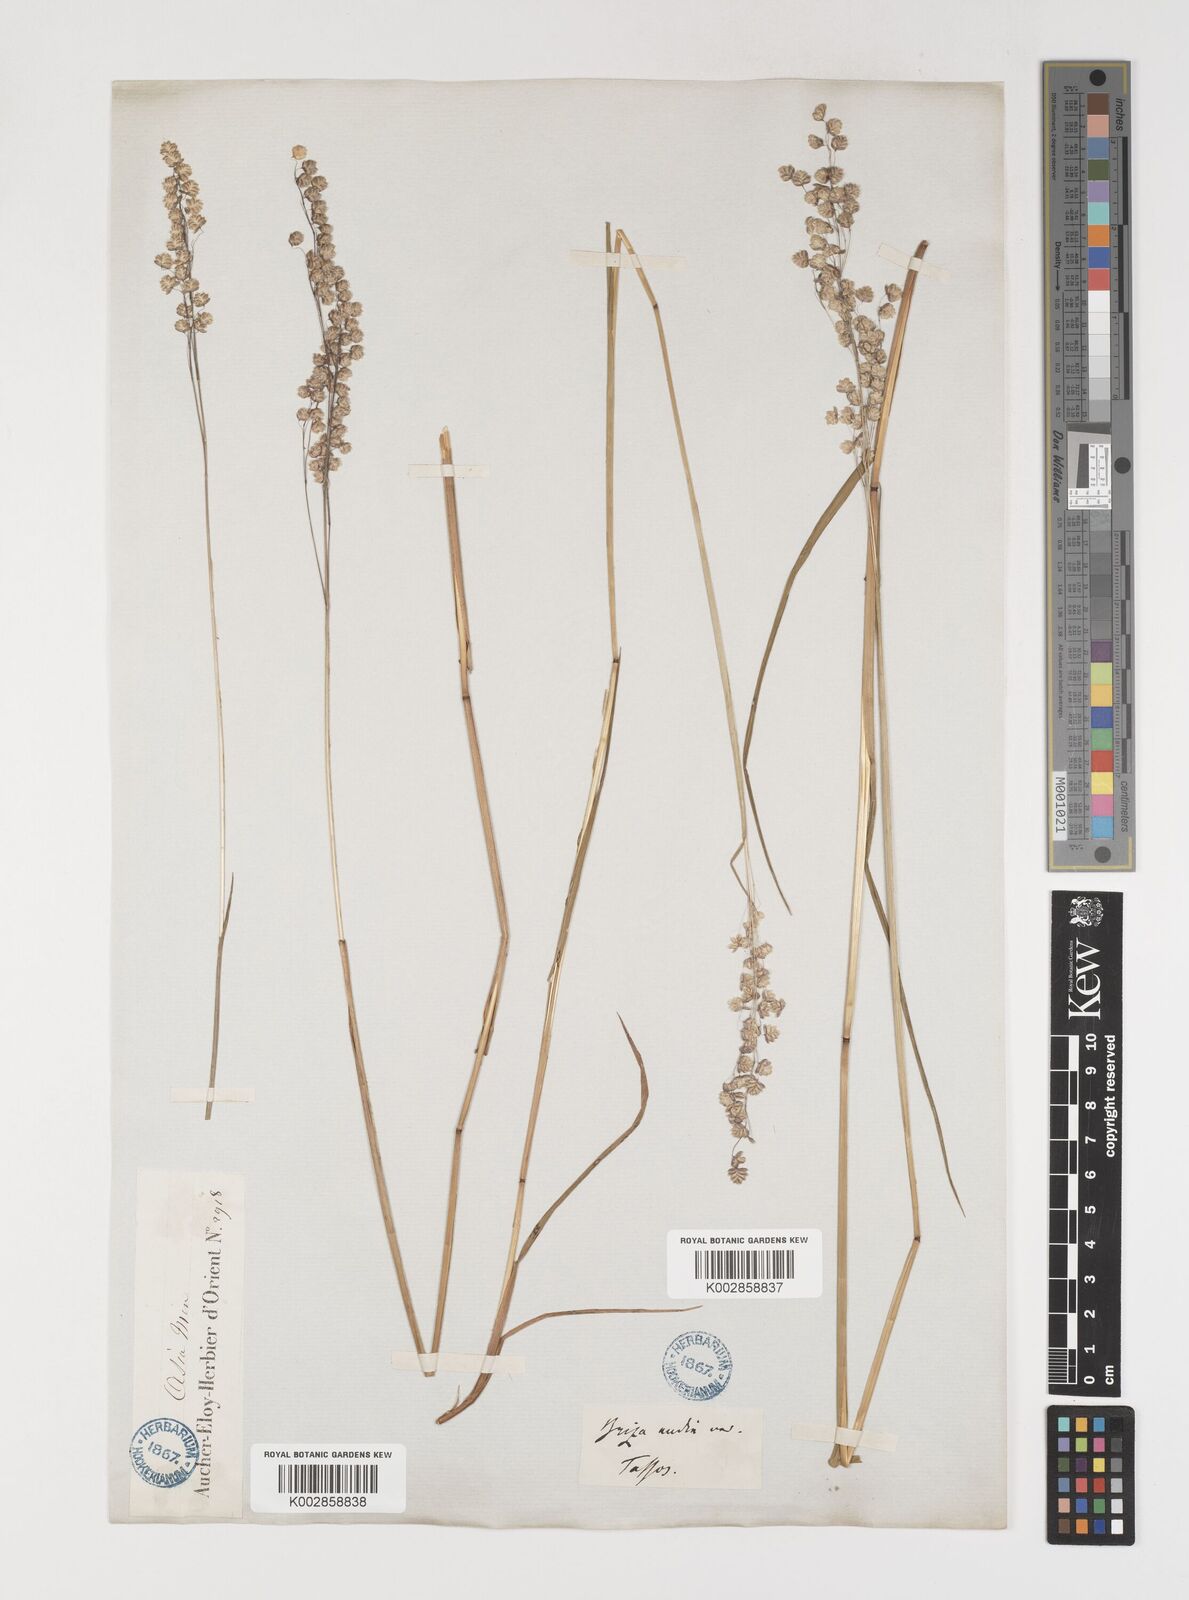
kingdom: Plantae
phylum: Tracheophyta
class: Liliopsida
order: Poales
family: Poaceae
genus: Briza
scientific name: Briza media
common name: Quaking grass
